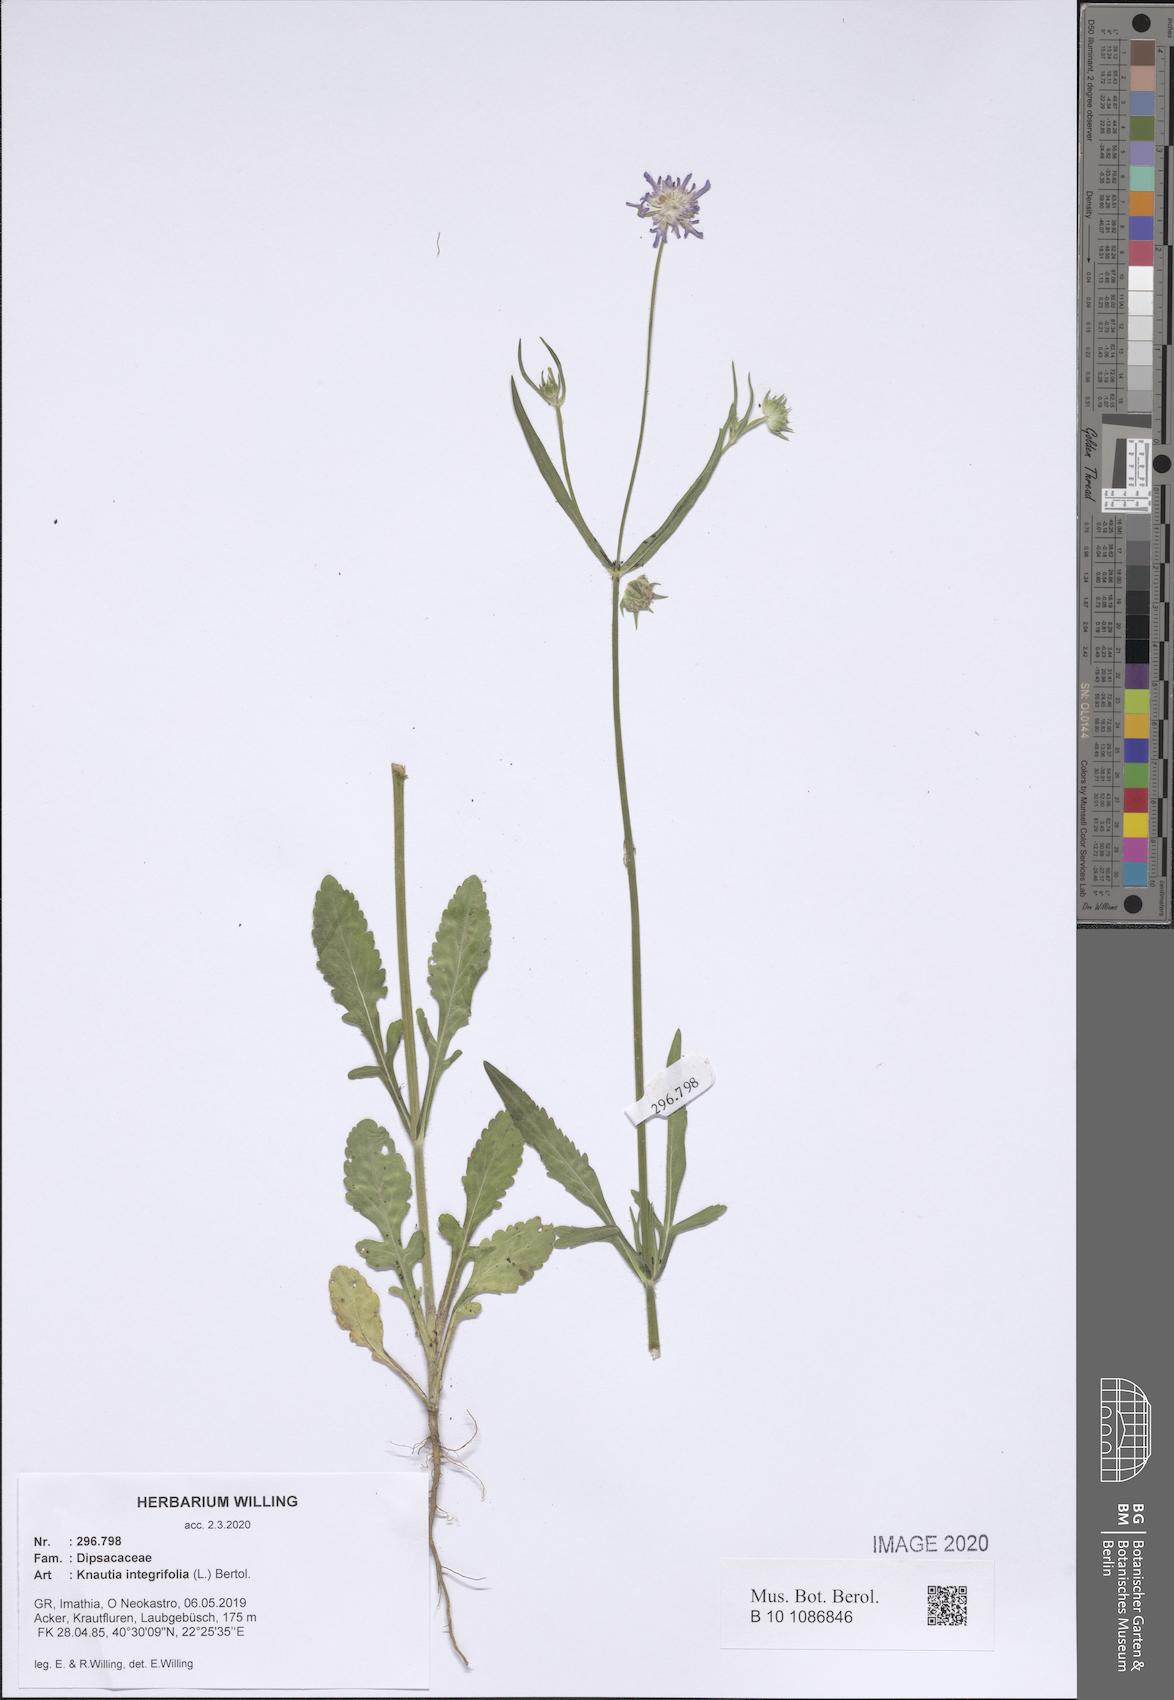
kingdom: Plantae
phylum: Tracheophyta
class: Magnoliopsida
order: Dipsacales
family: Caprifoliaceae
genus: Knautia
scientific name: Knautia integrifolia
